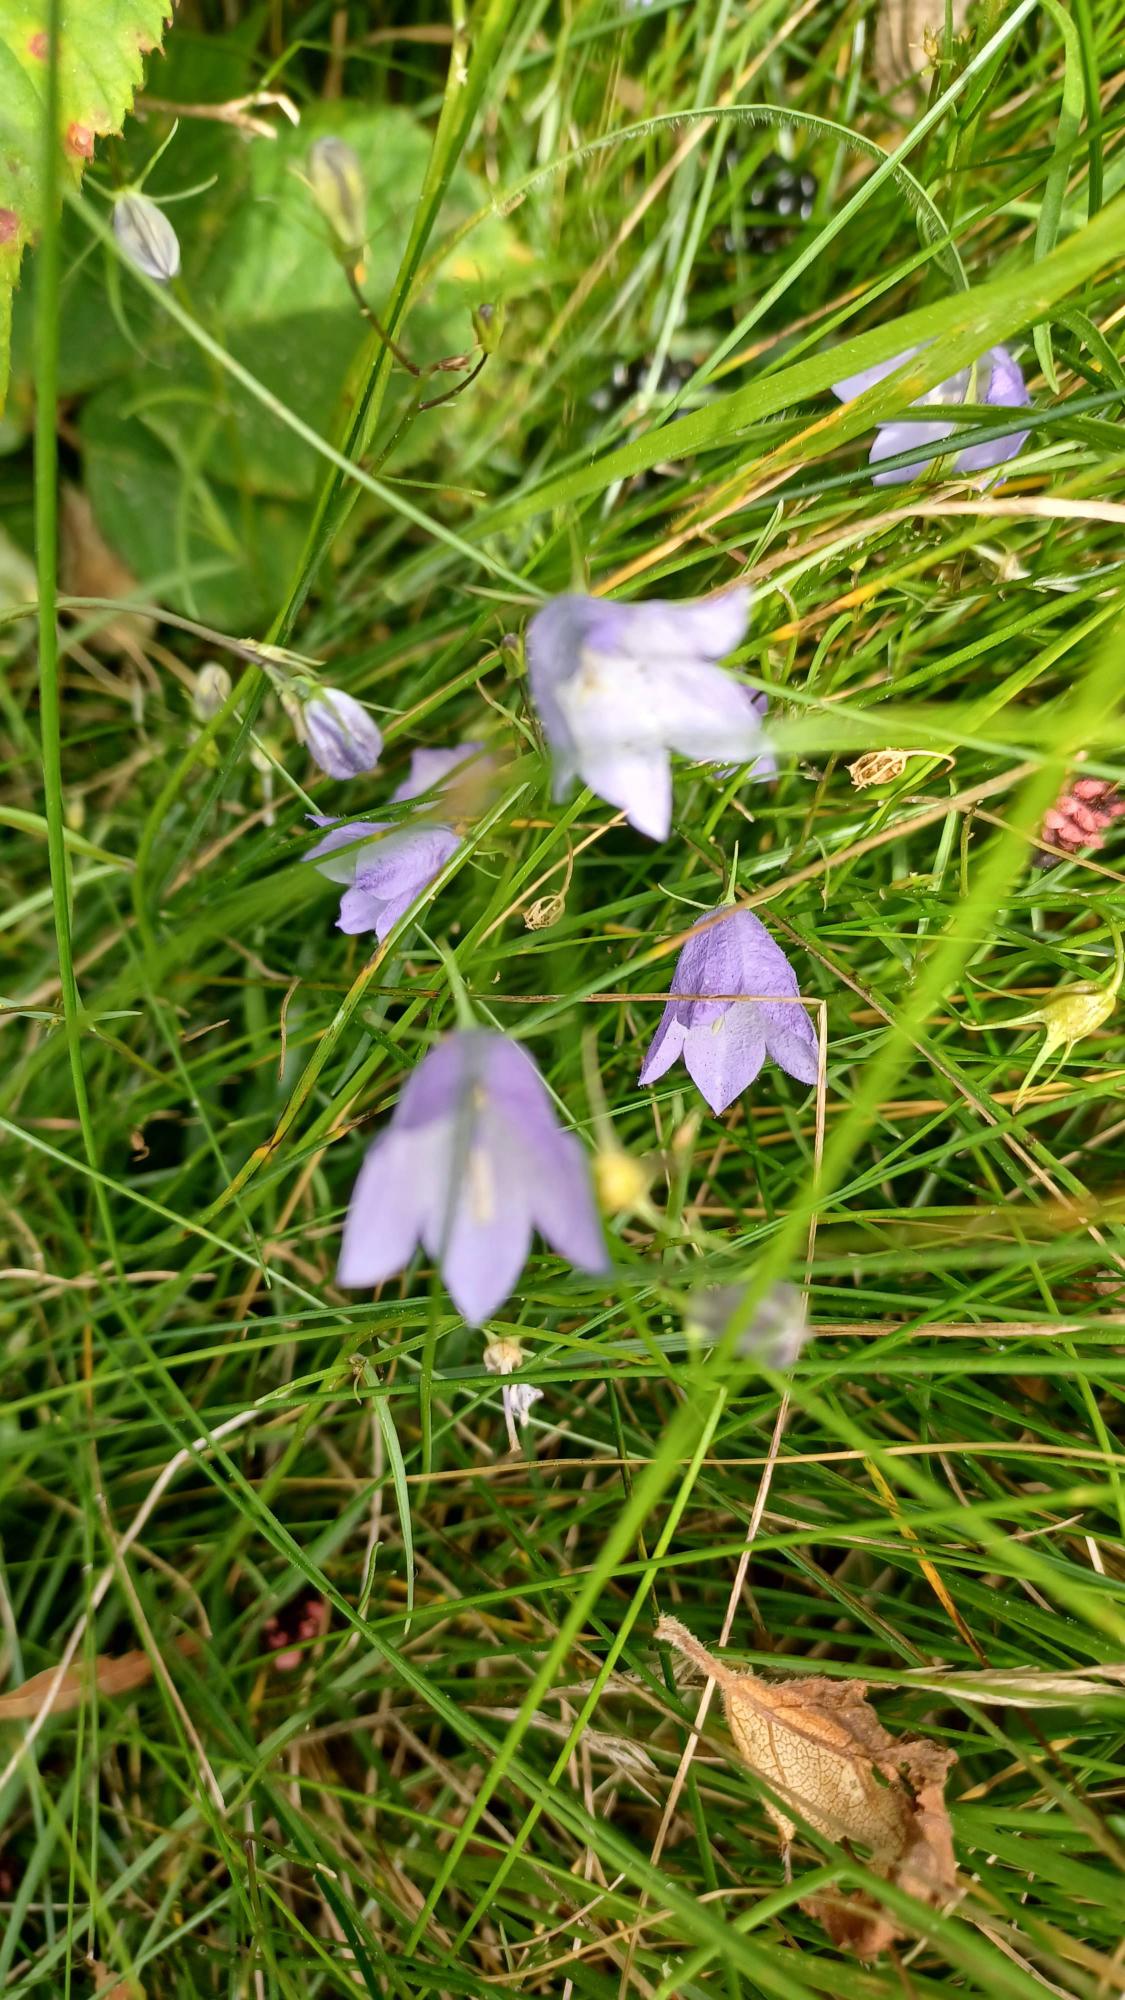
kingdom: Plantae
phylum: Tracheophyta
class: Magnoliopsida
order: Asterales
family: Campanulaceae
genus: Campanula
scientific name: Campanula rotundifolia
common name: Liden klokke
